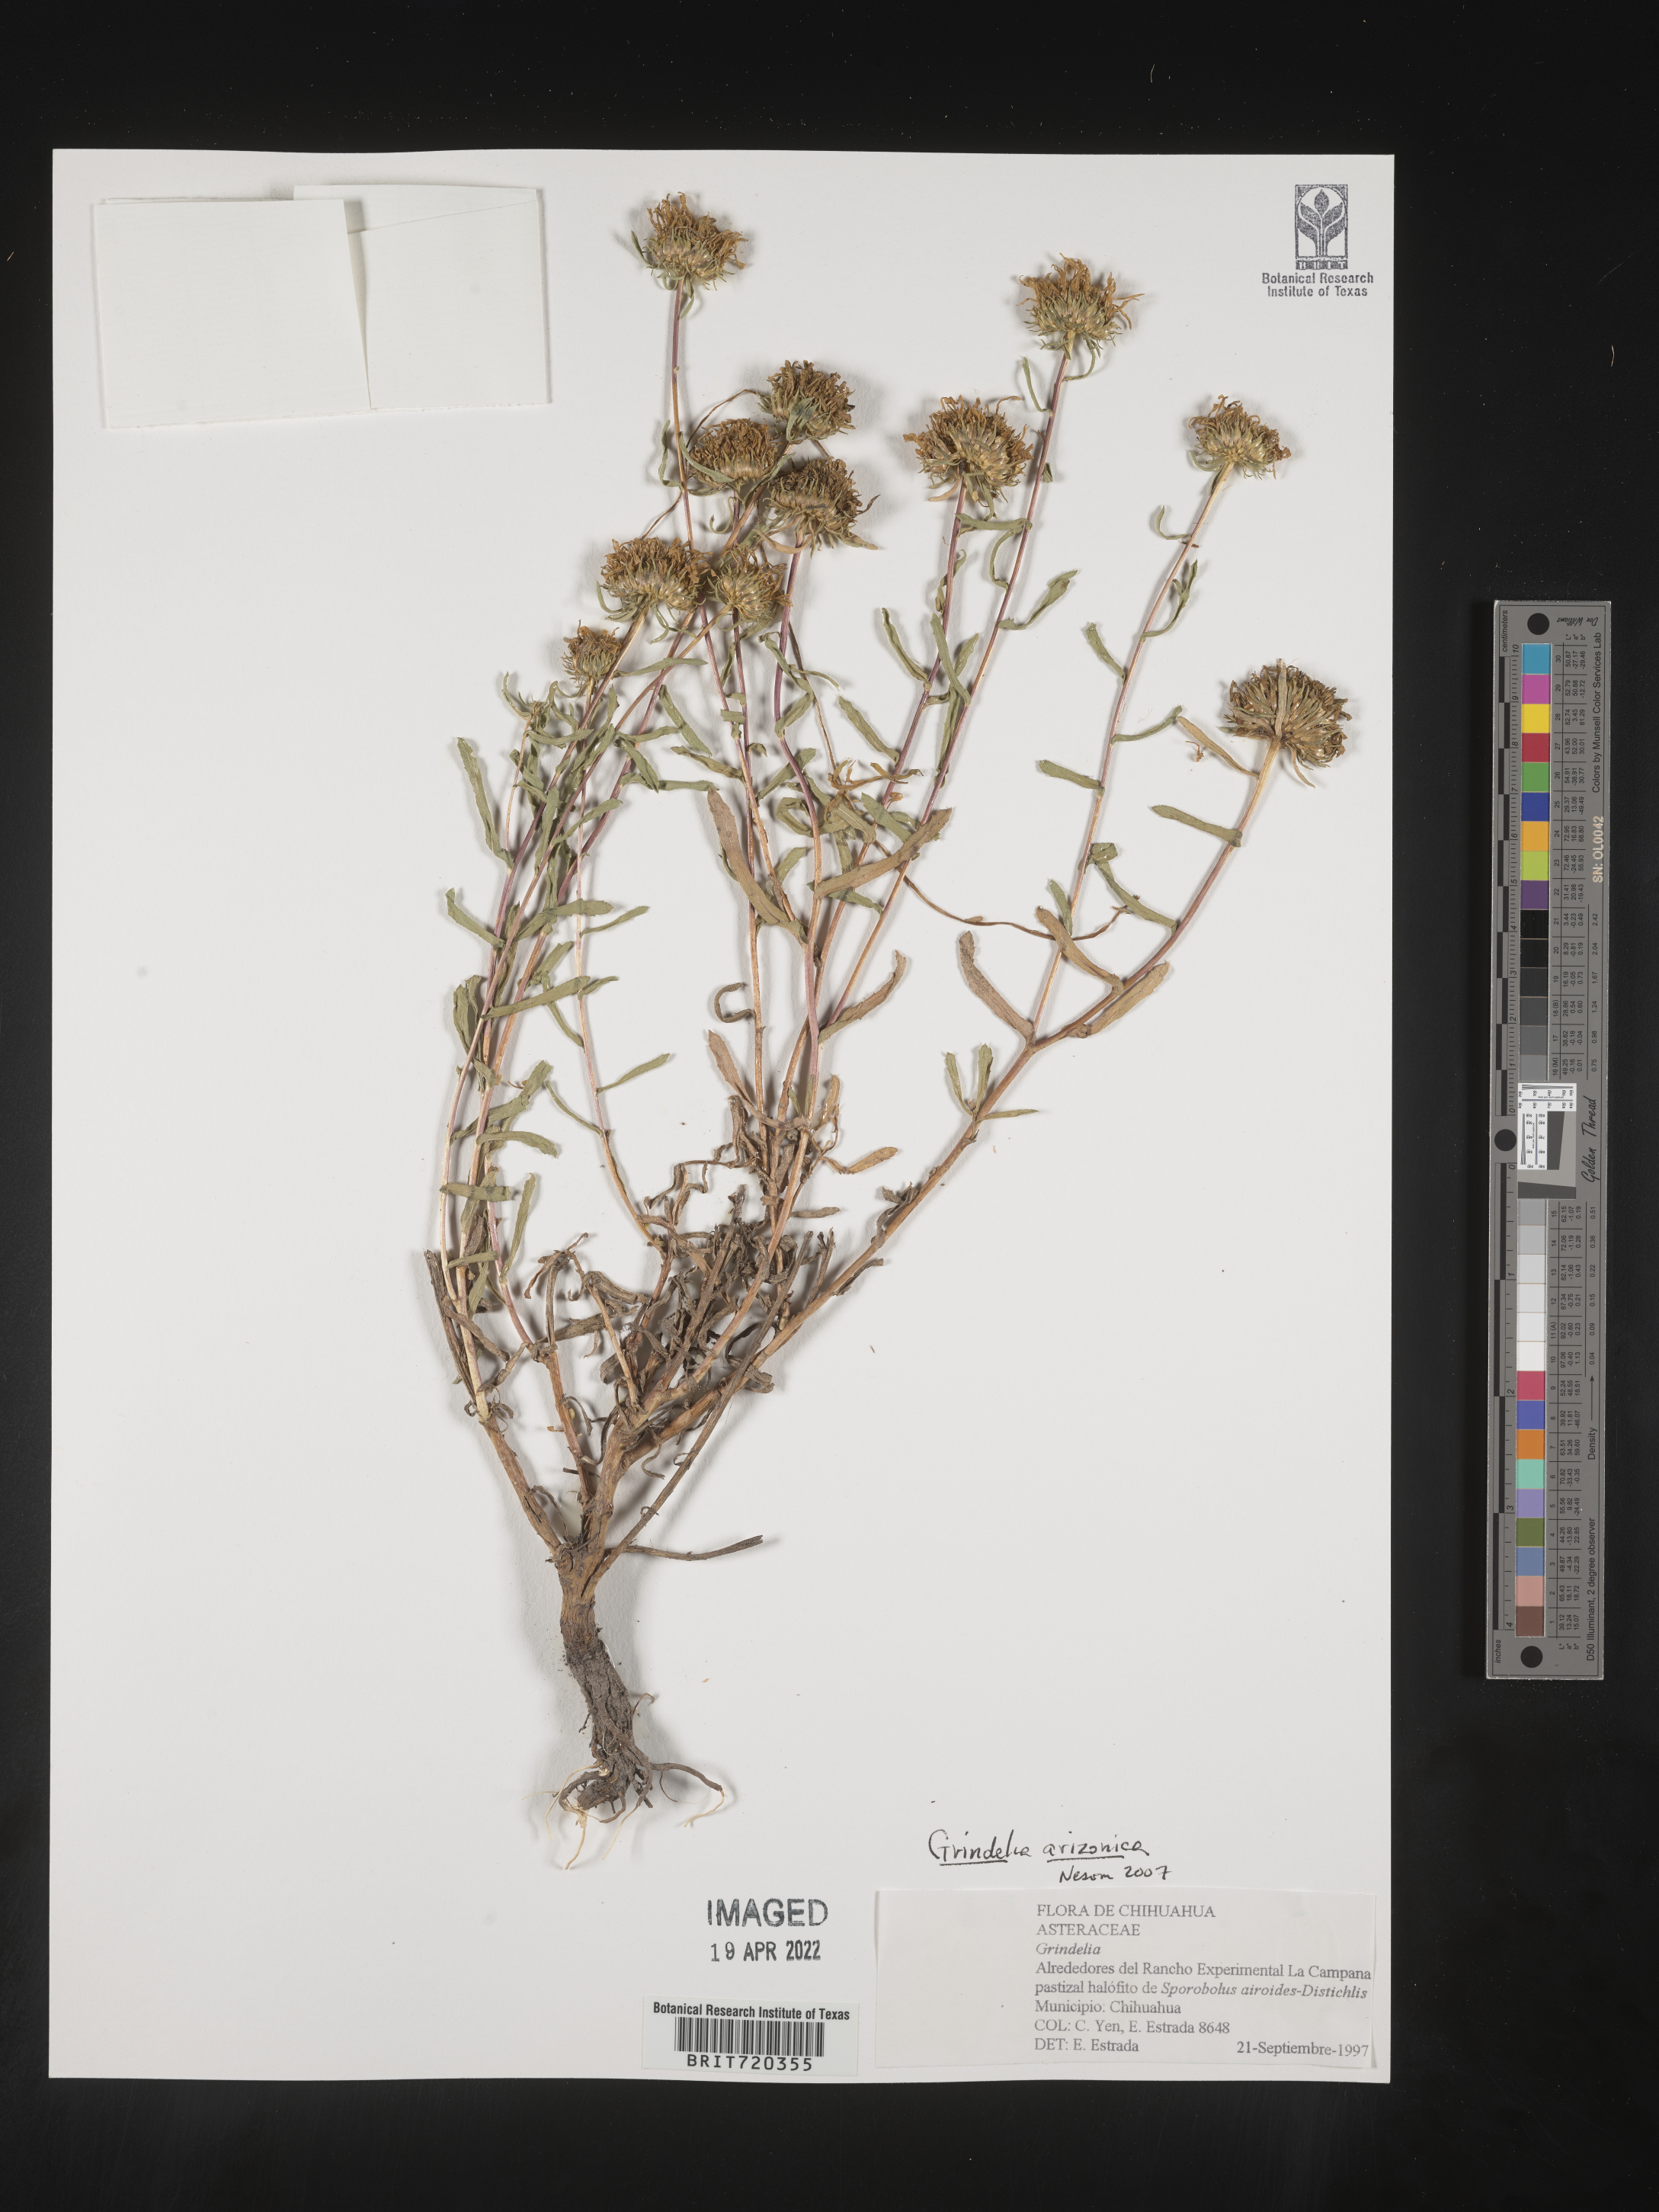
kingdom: Plantae
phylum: Tracheophyta
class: Magnoliopsida
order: Asterales
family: Asteraceae
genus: Grindelia
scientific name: Grindelia
